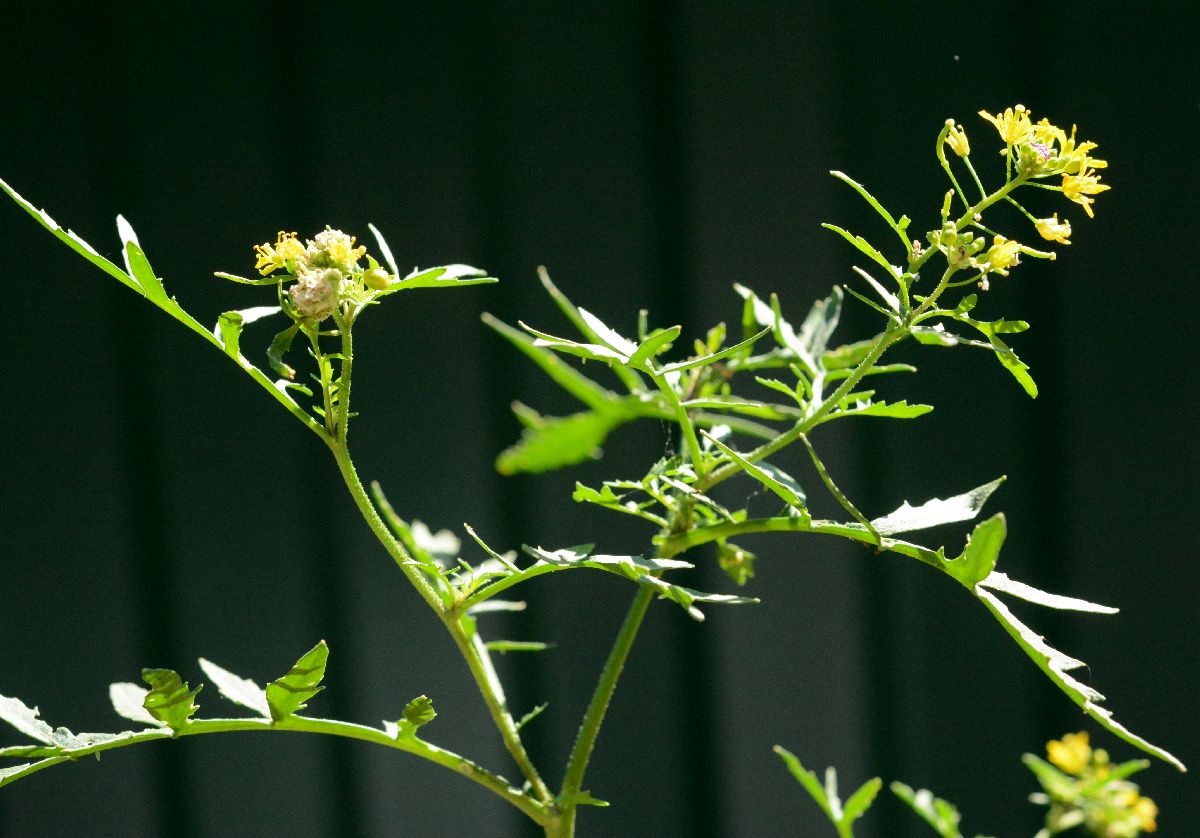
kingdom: Plantae
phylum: Tracheophyta
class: Magnoliopsida
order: Brassicales
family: Brassicaceae
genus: Rorippa
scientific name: Rorippa sylvestris
